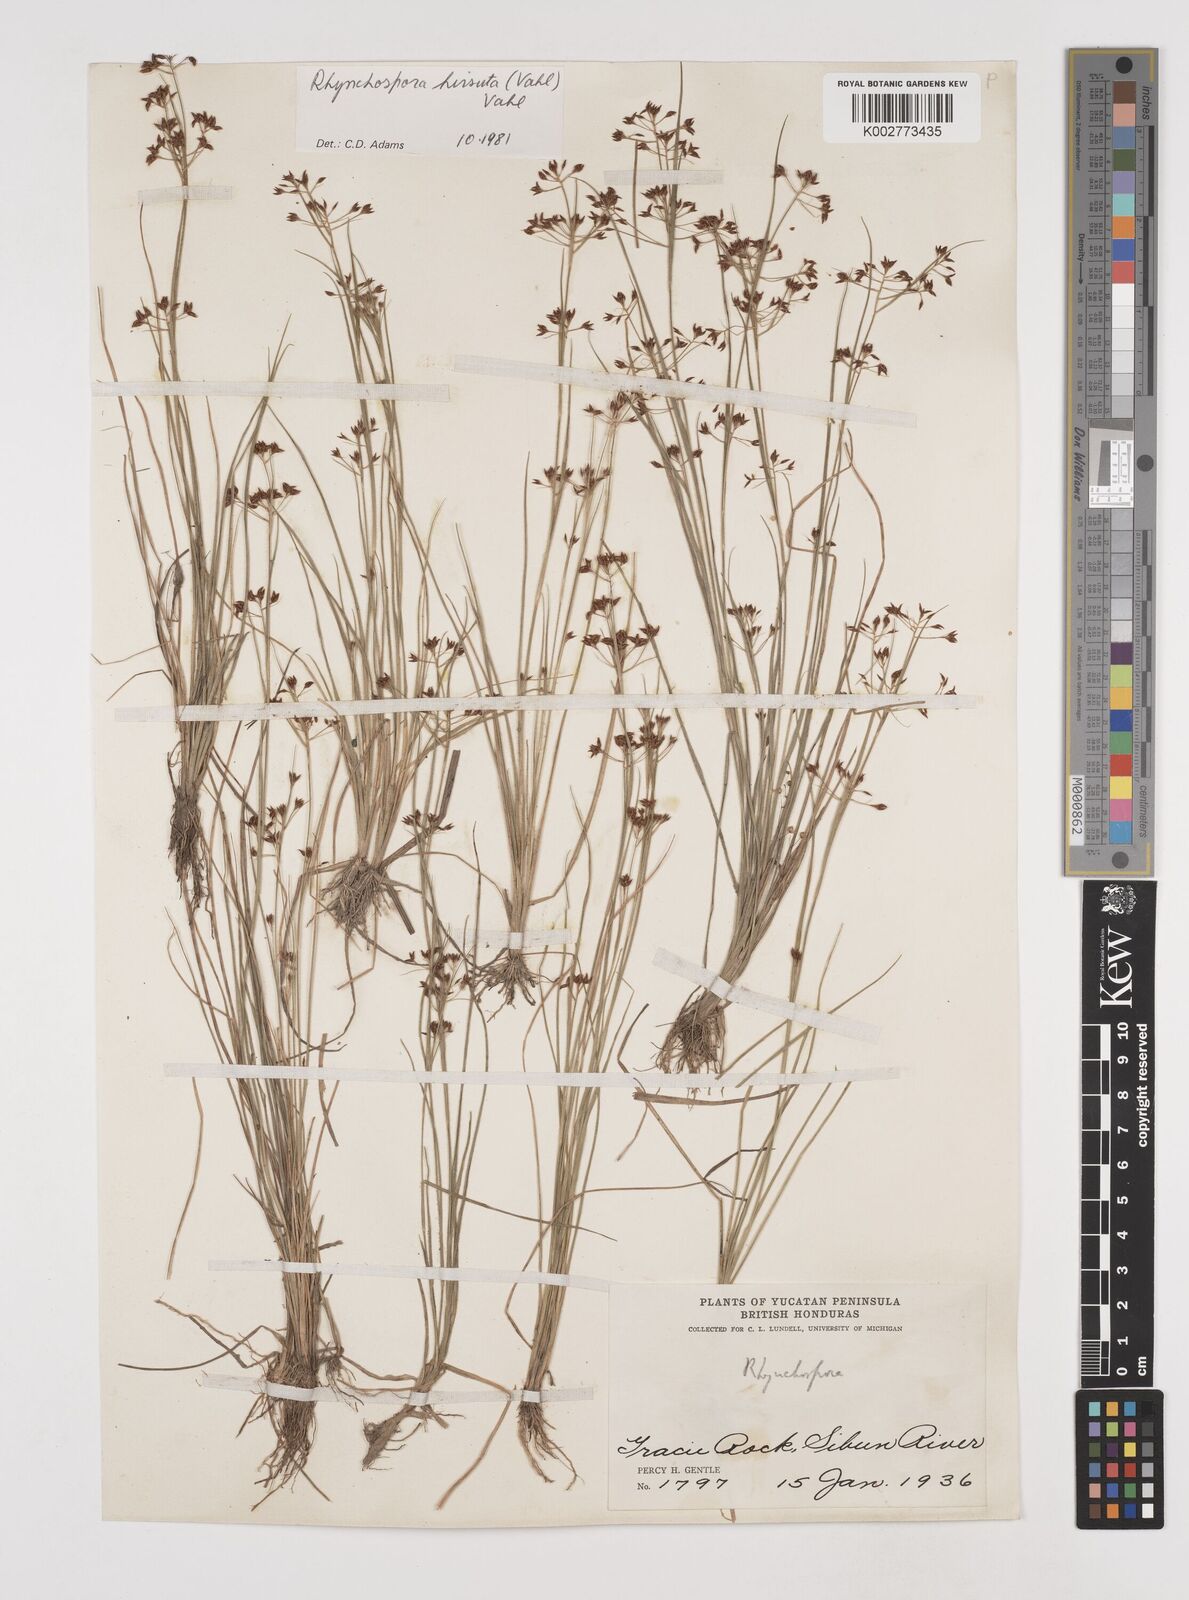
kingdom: Plantae
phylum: Tracheophyta
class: Liliopsida
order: Poales
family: Cyperaceae
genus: Rhynchospora
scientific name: Rhynchospora hirsuta
